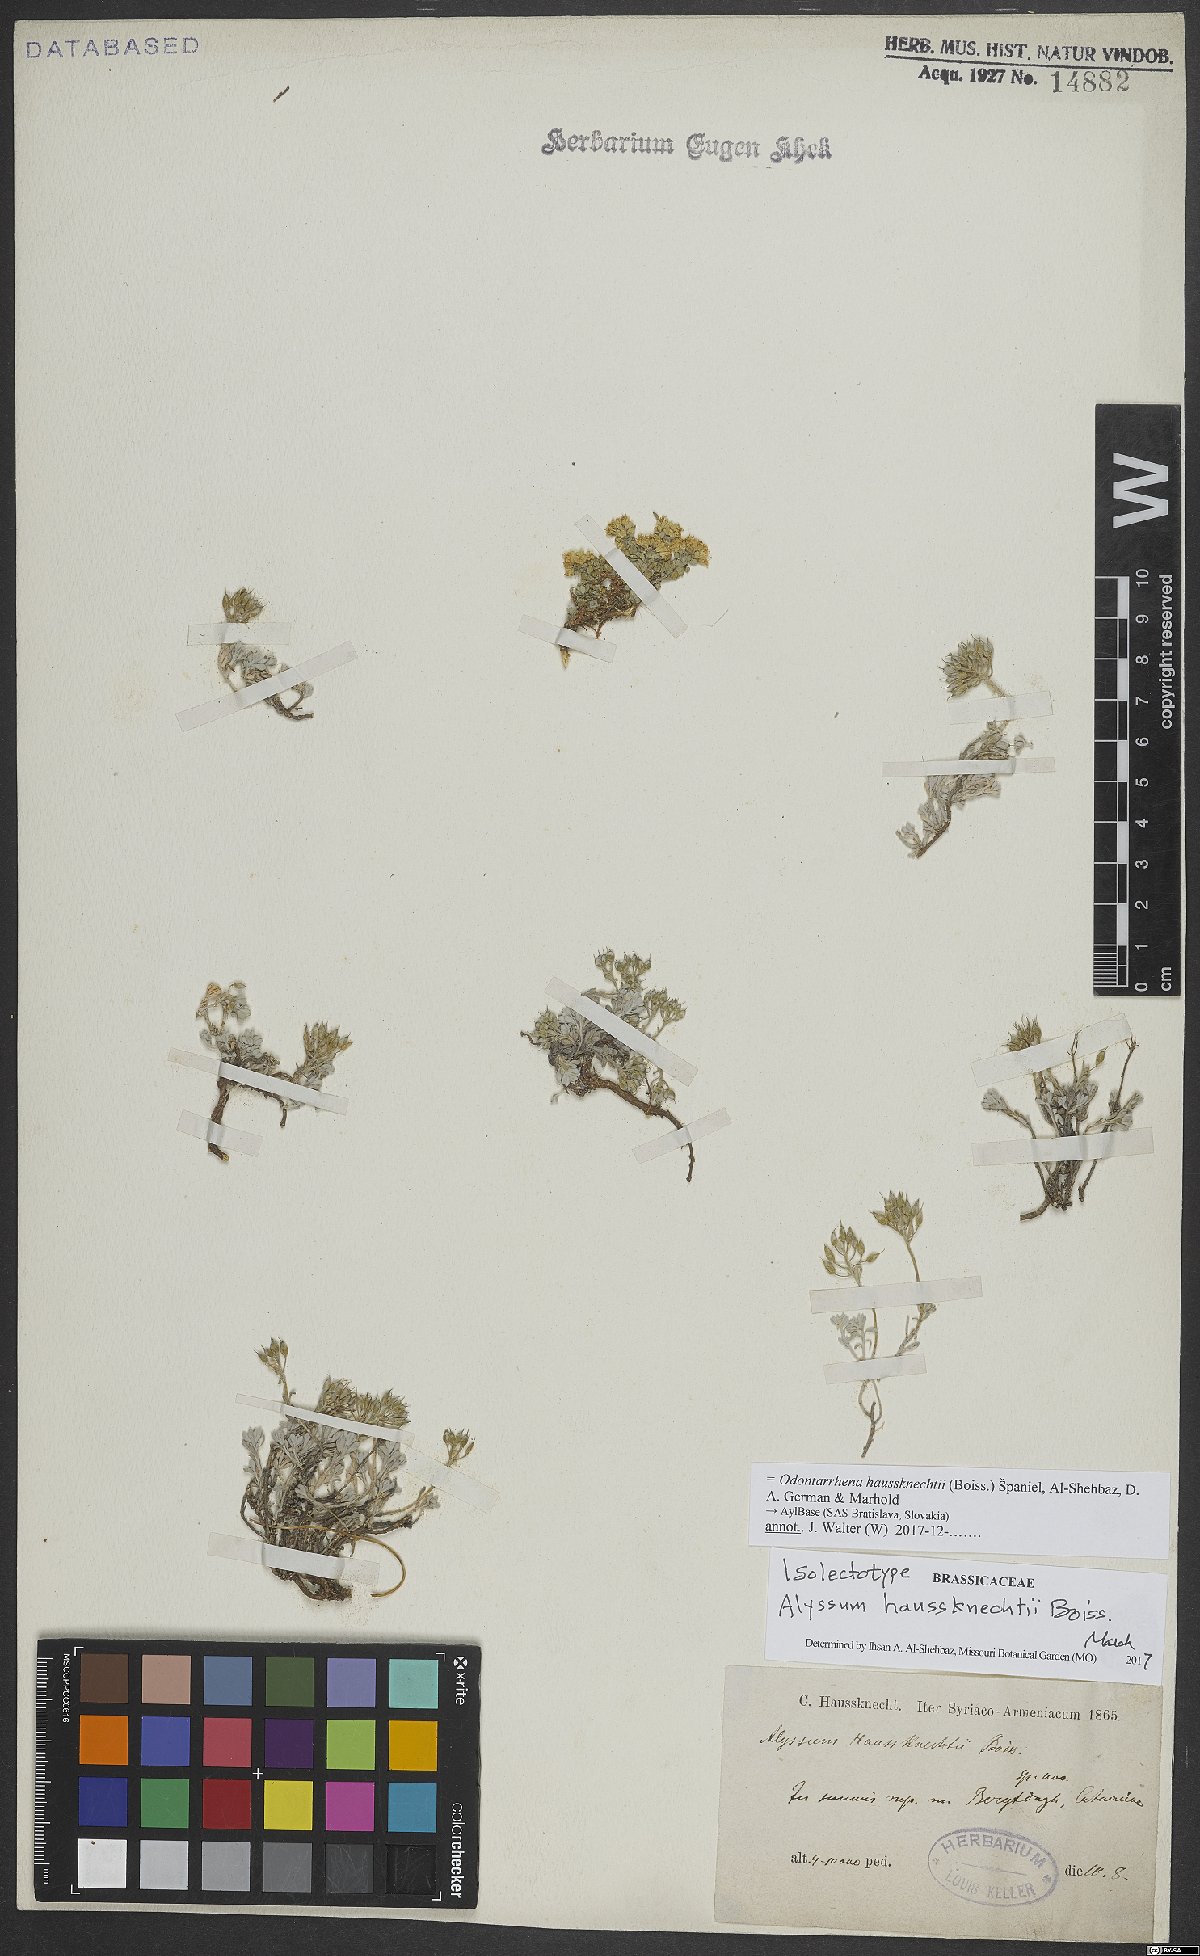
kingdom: Plantae
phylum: Tracheophyta
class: Magnoliopsida
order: Brassicales
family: Brassicaceae
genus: Odontarrhena
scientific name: Odontarrhena haussknechtii
